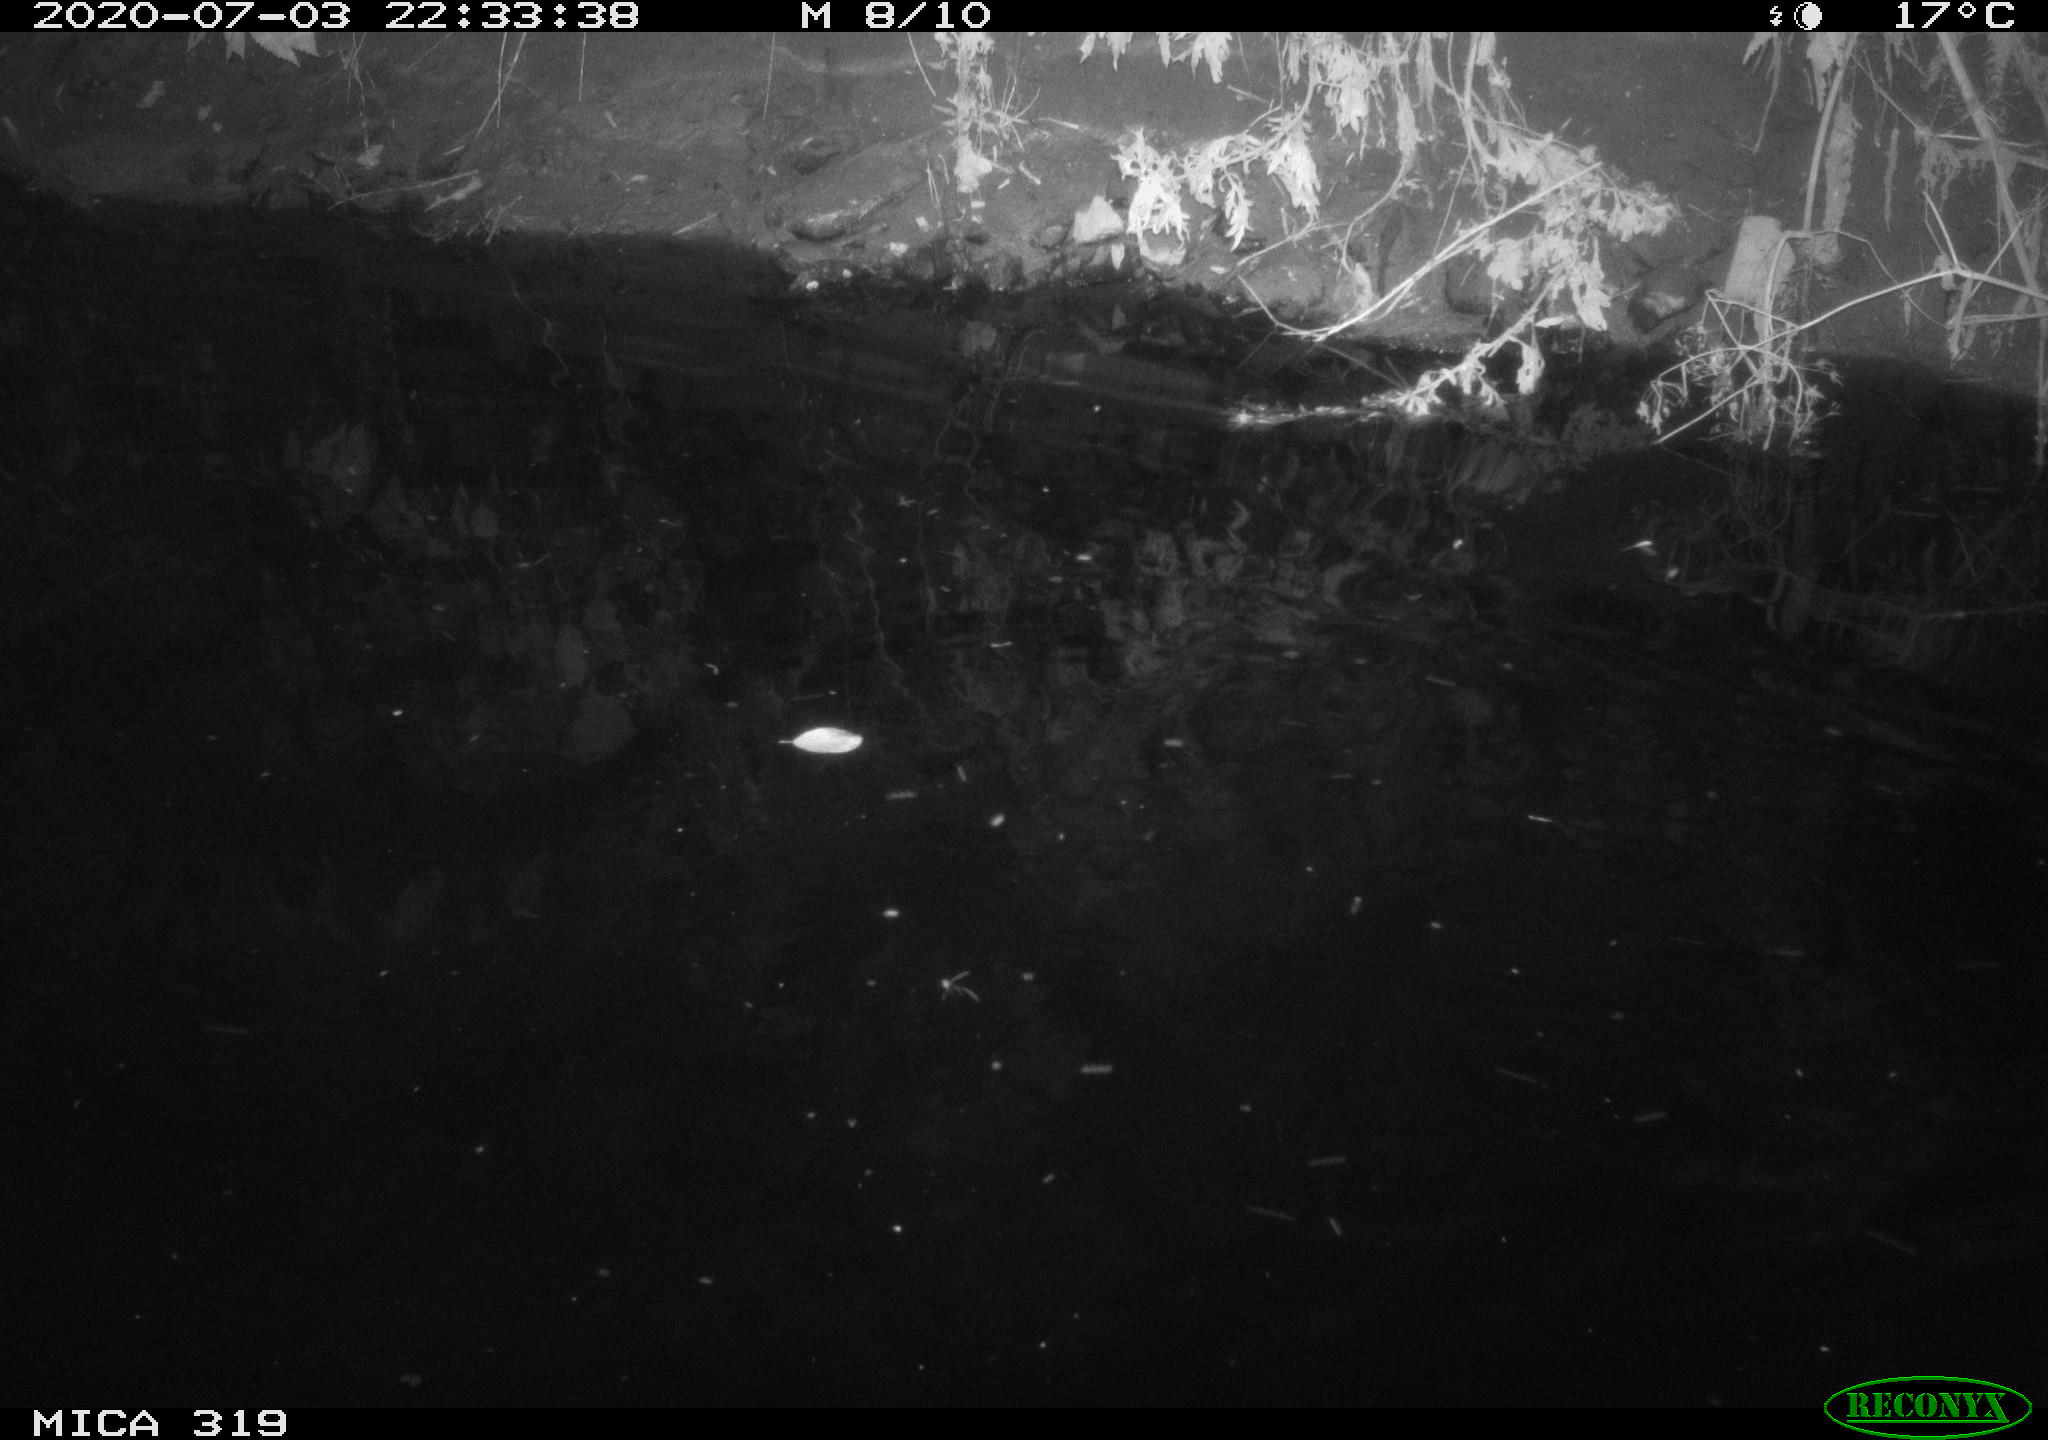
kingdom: Animalia
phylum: Chordata
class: Aves
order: Anseriformes
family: Anatidae
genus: Anas
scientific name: Anas platyrhynchos
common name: Mallard
